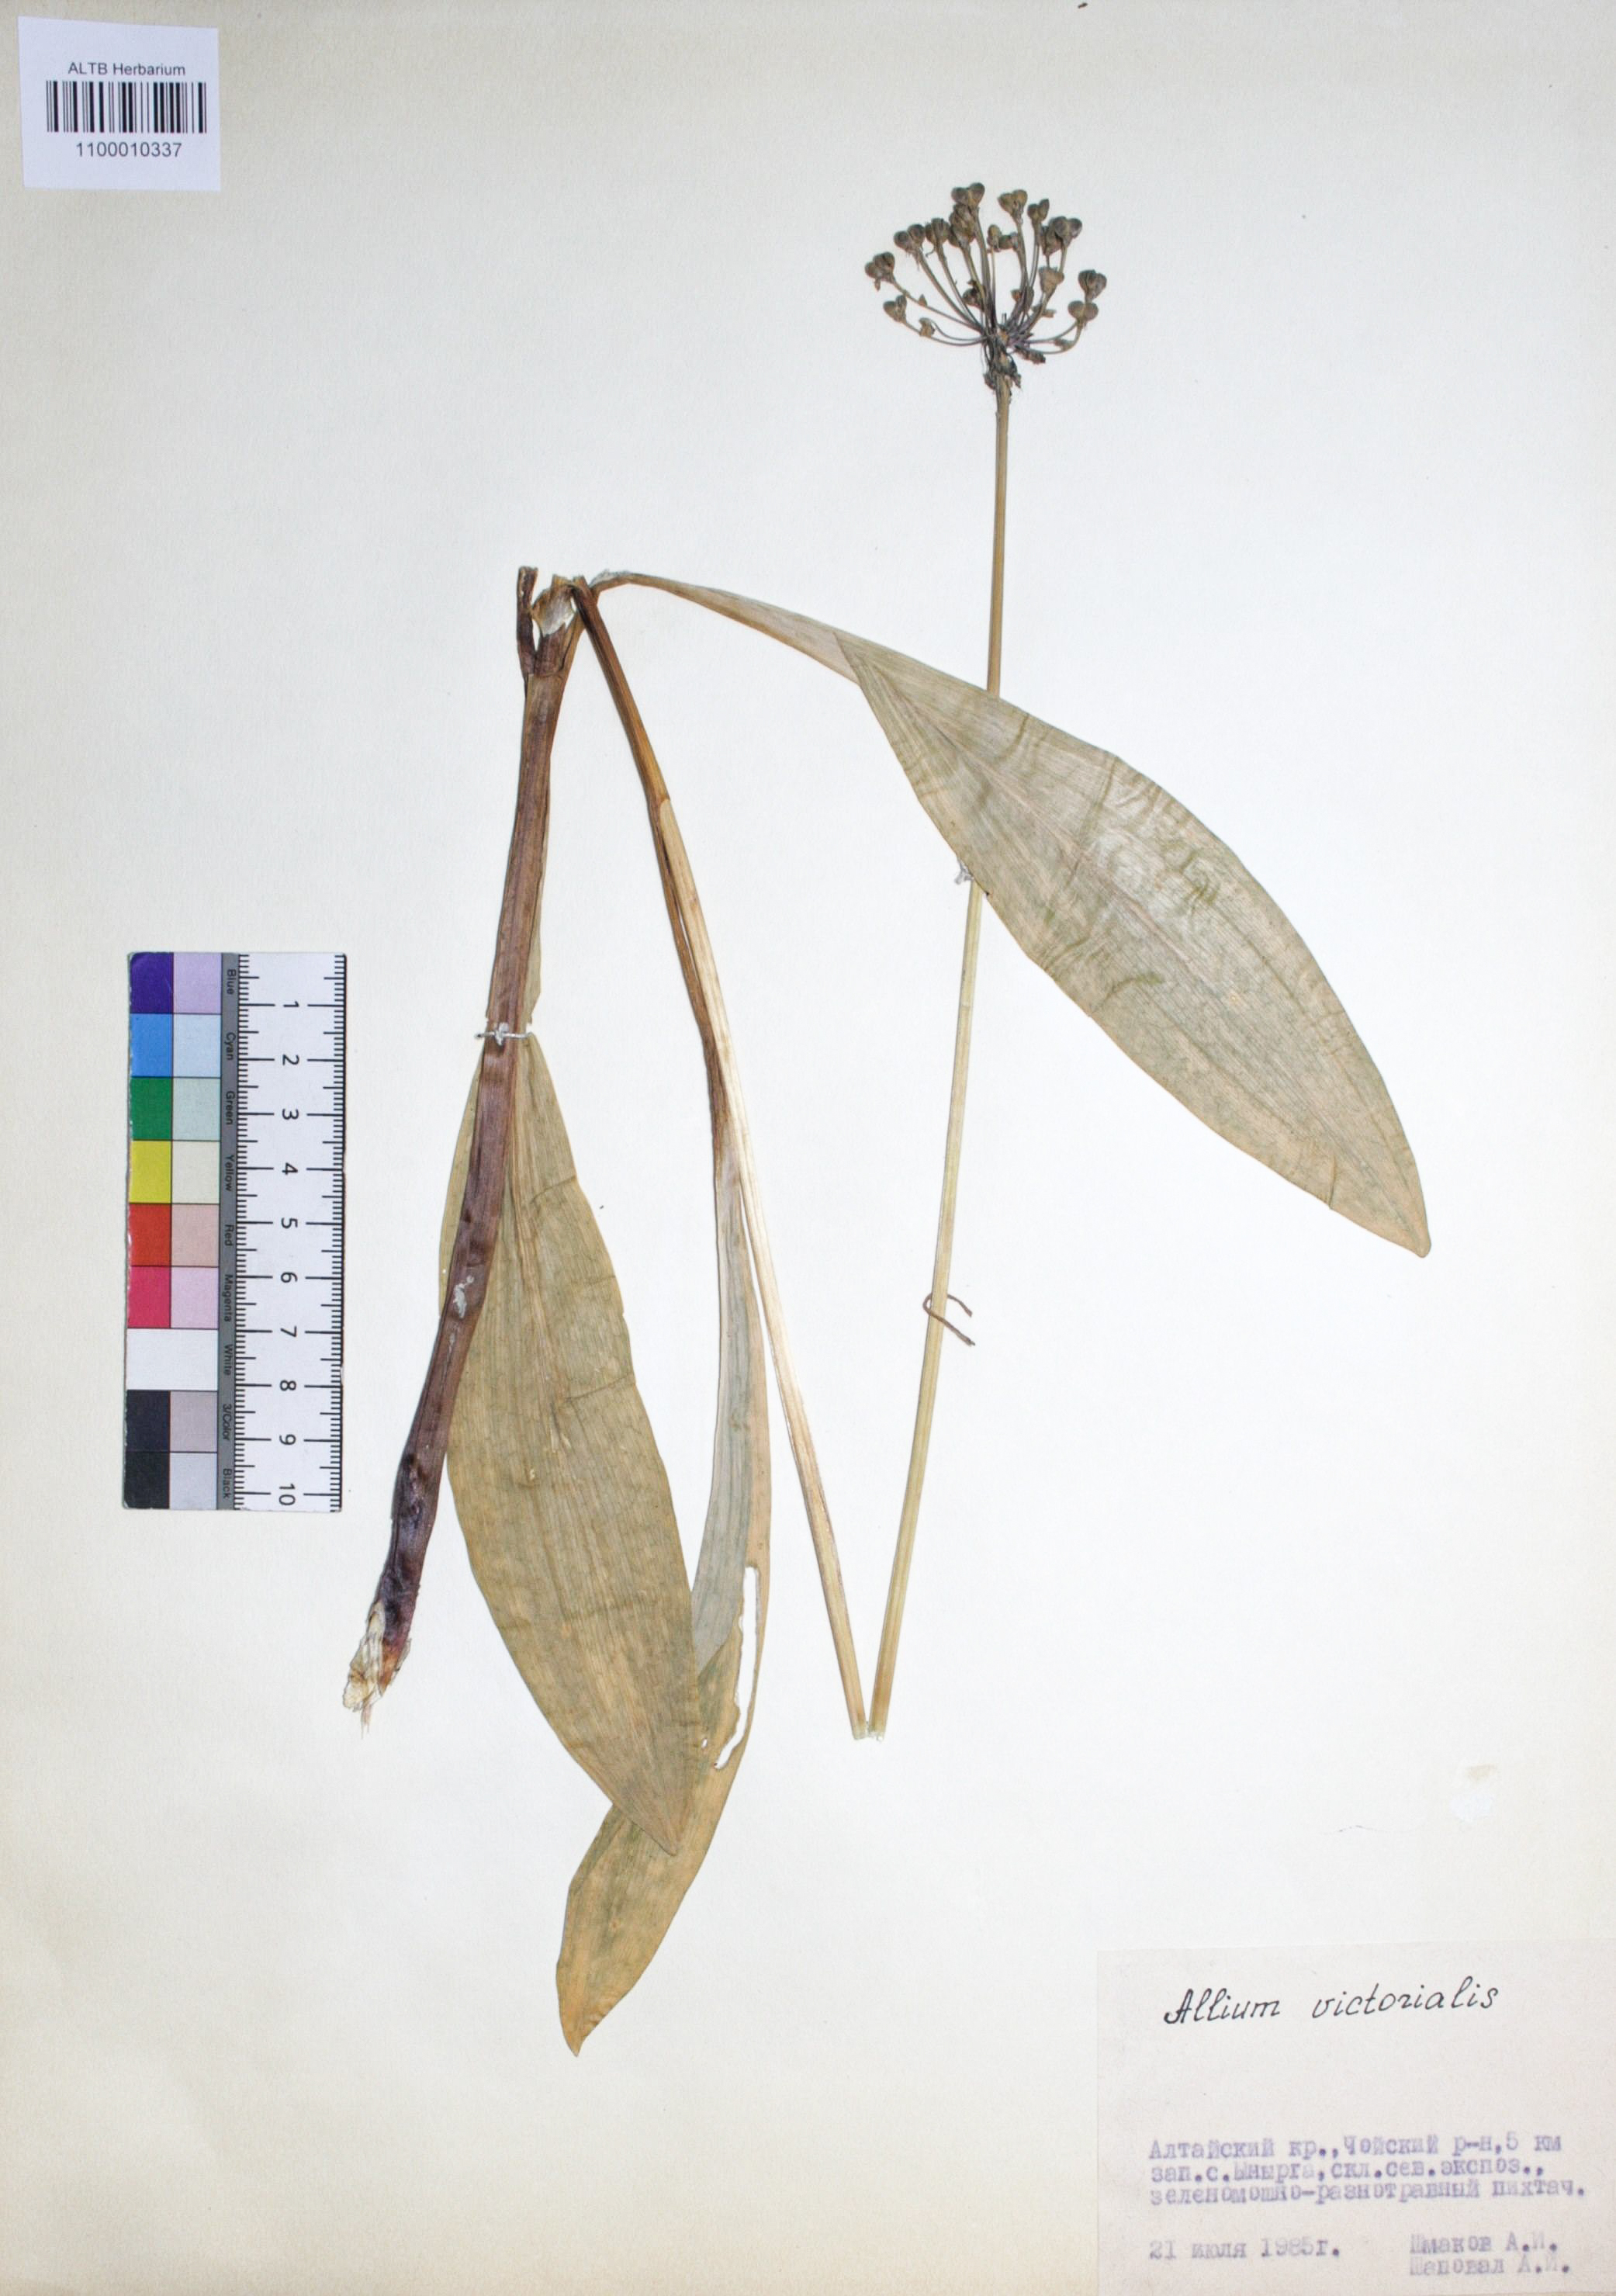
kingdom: Plantae
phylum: Tracheophyta
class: Liliopsida
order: Asparagales
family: Amaryllidaceae
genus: Allium
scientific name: Allium victorialis
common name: Alpine leek
